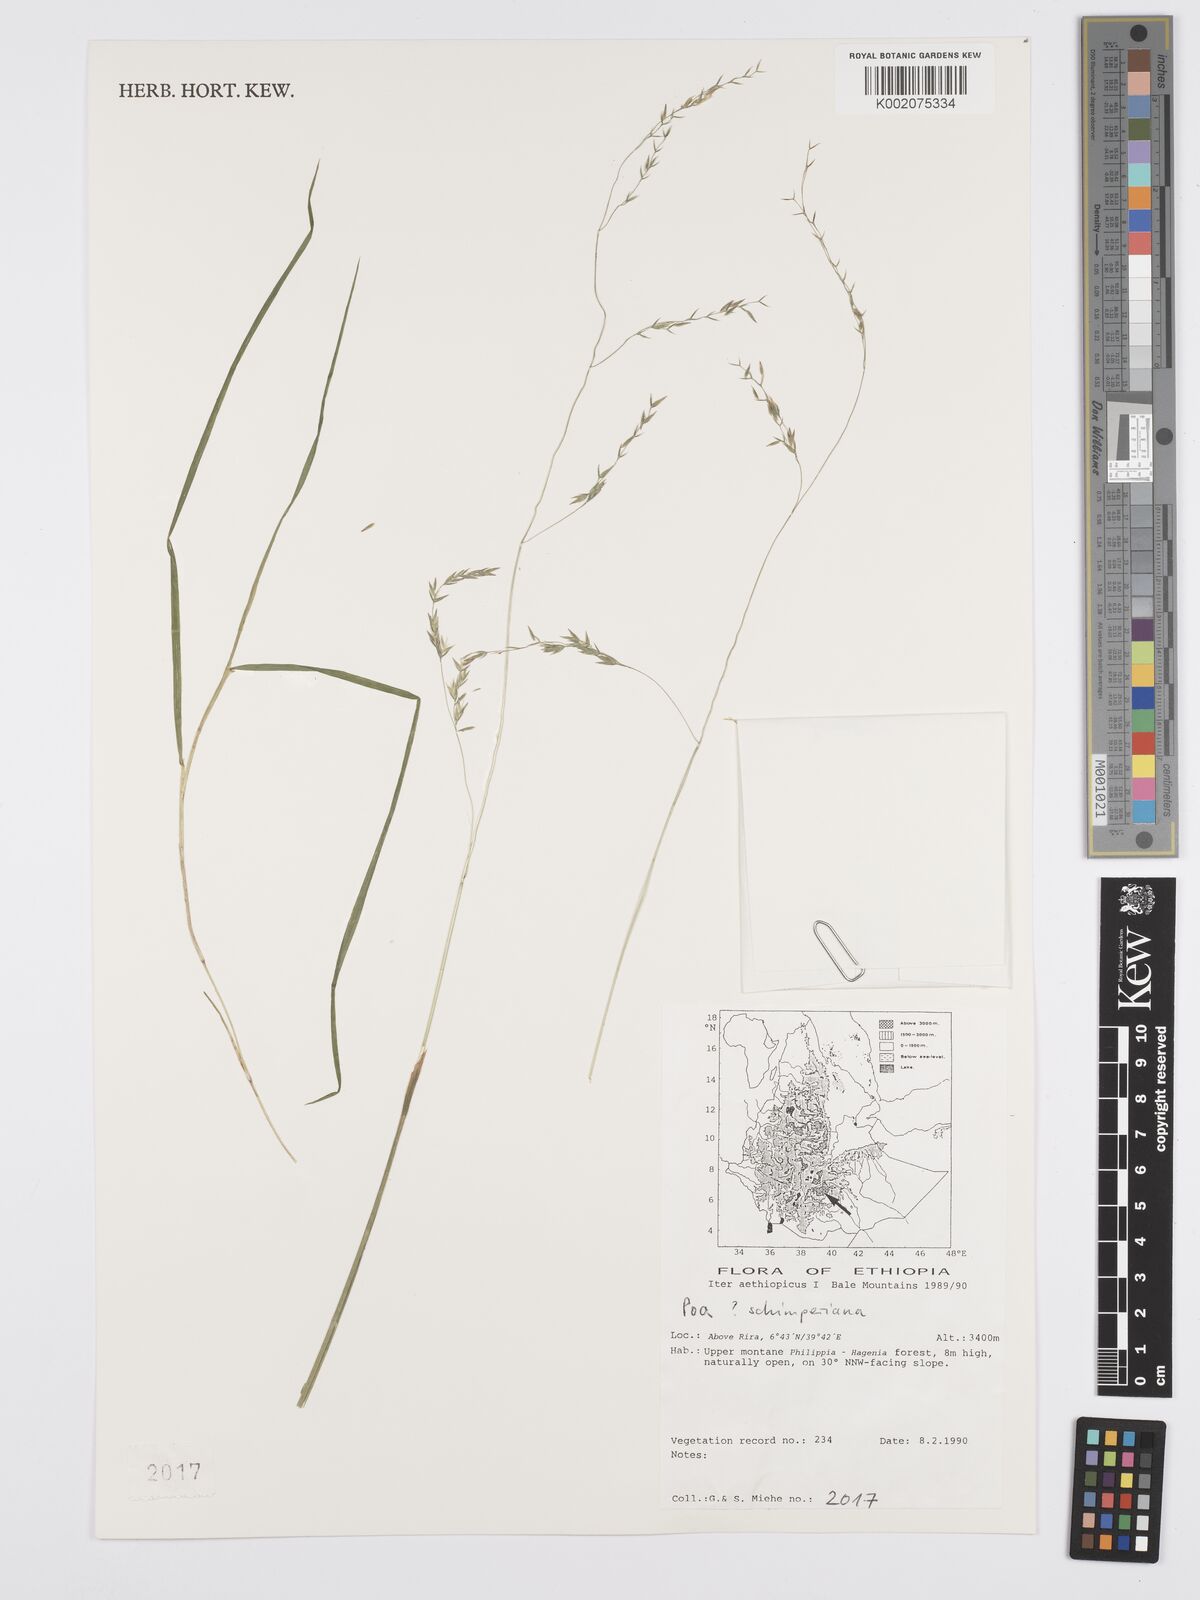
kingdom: Plantae
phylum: Tracheophyta
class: Liliopsida
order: Poales
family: Poaceae
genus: Poa
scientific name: Poa schimperiana
